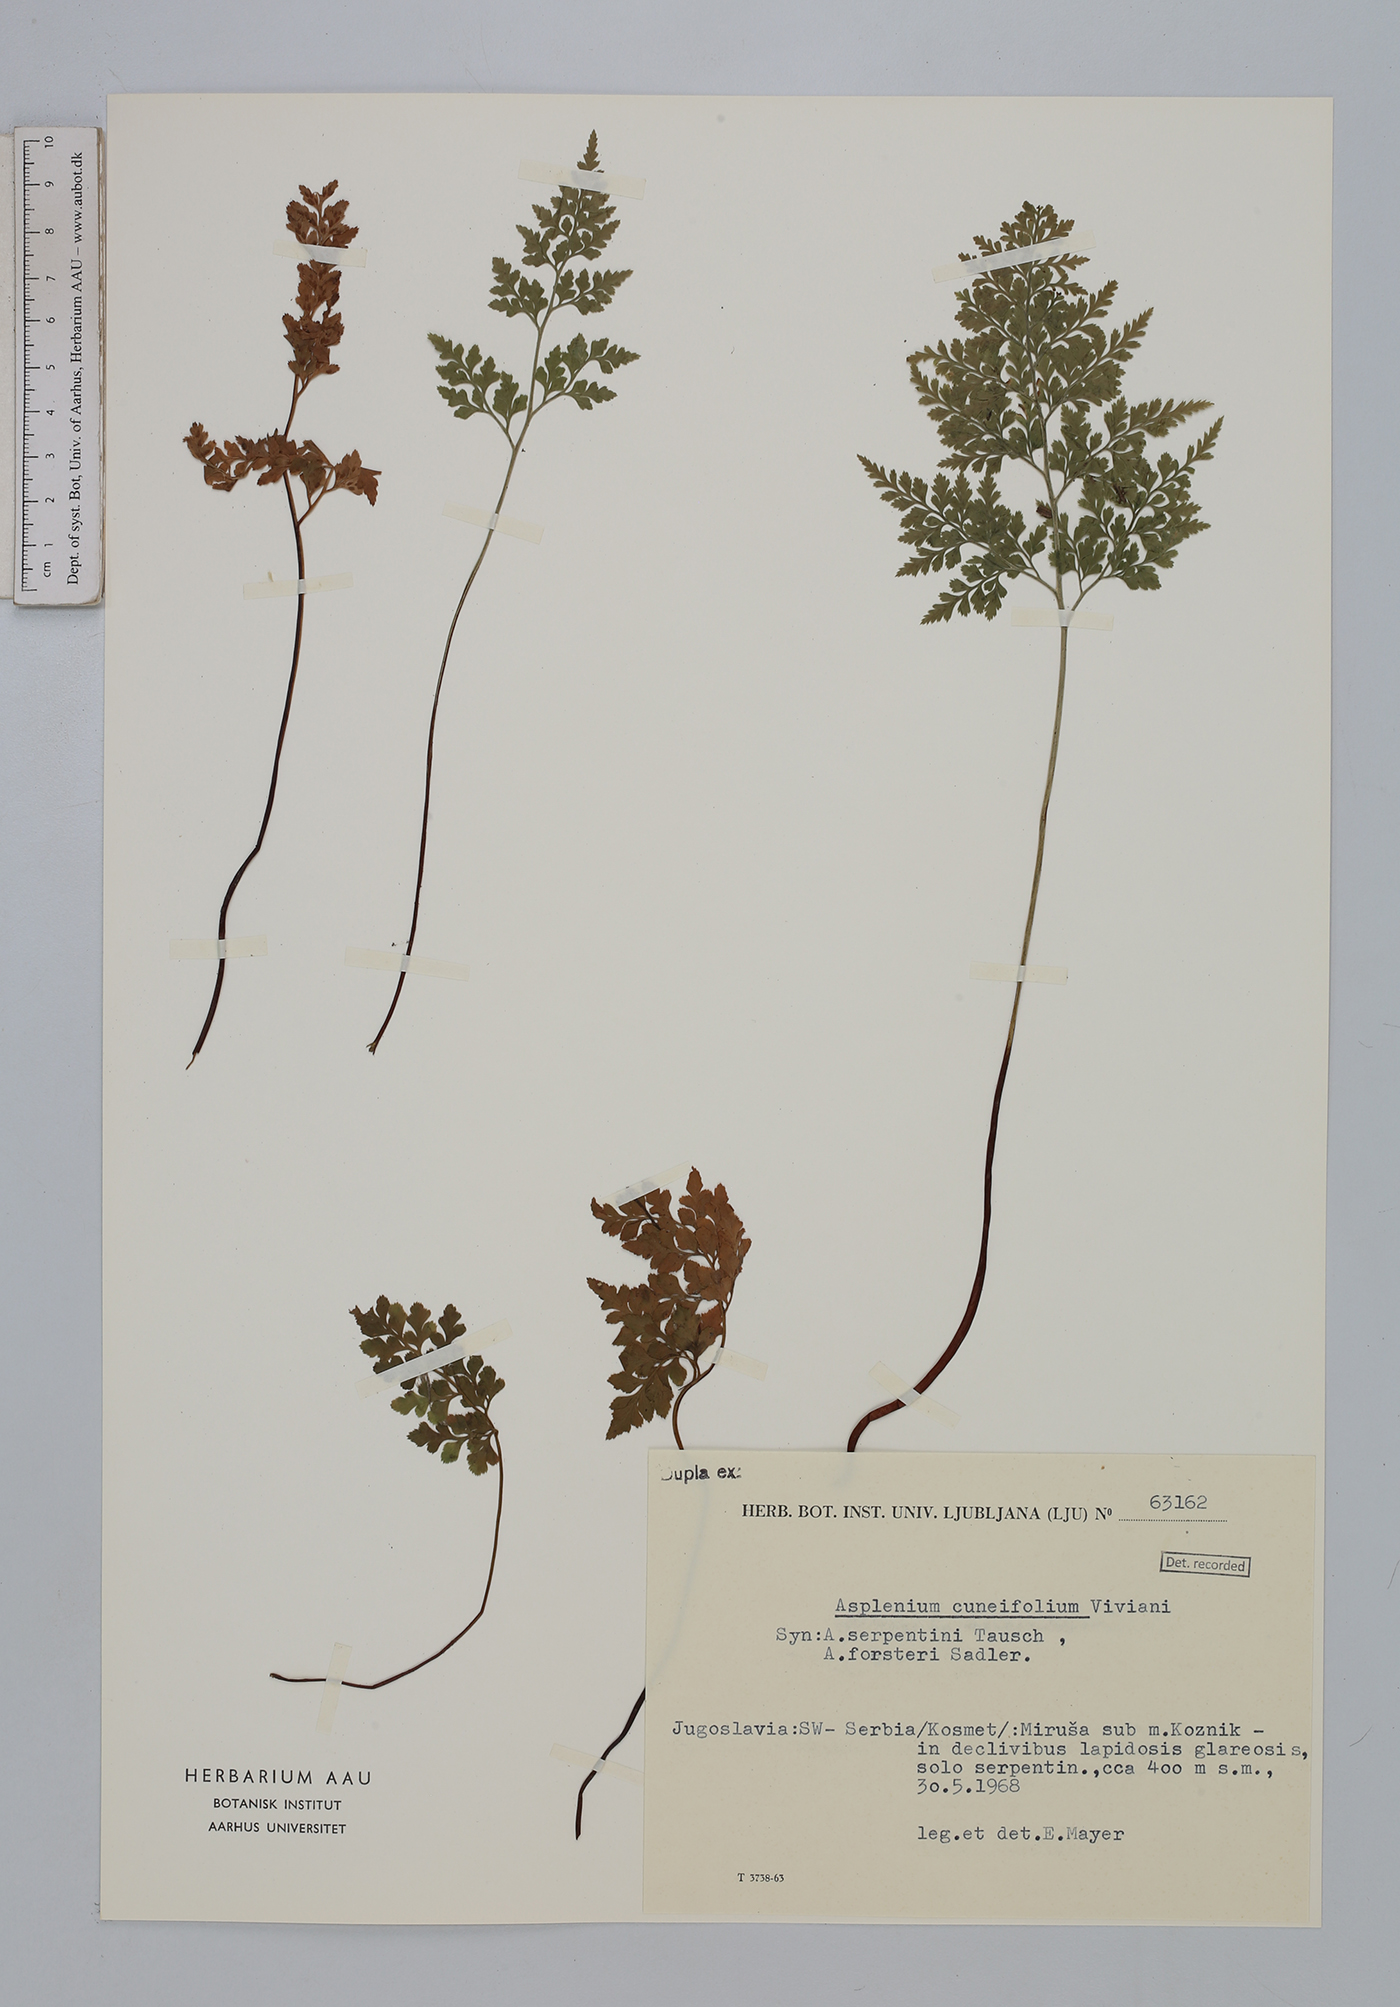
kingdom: Plantae
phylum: Tracheophyta
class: Polypodiopsida
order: Polypodiales
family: Aspleniaceae
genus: Asplenium
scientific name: Asplenium cuneifolium
